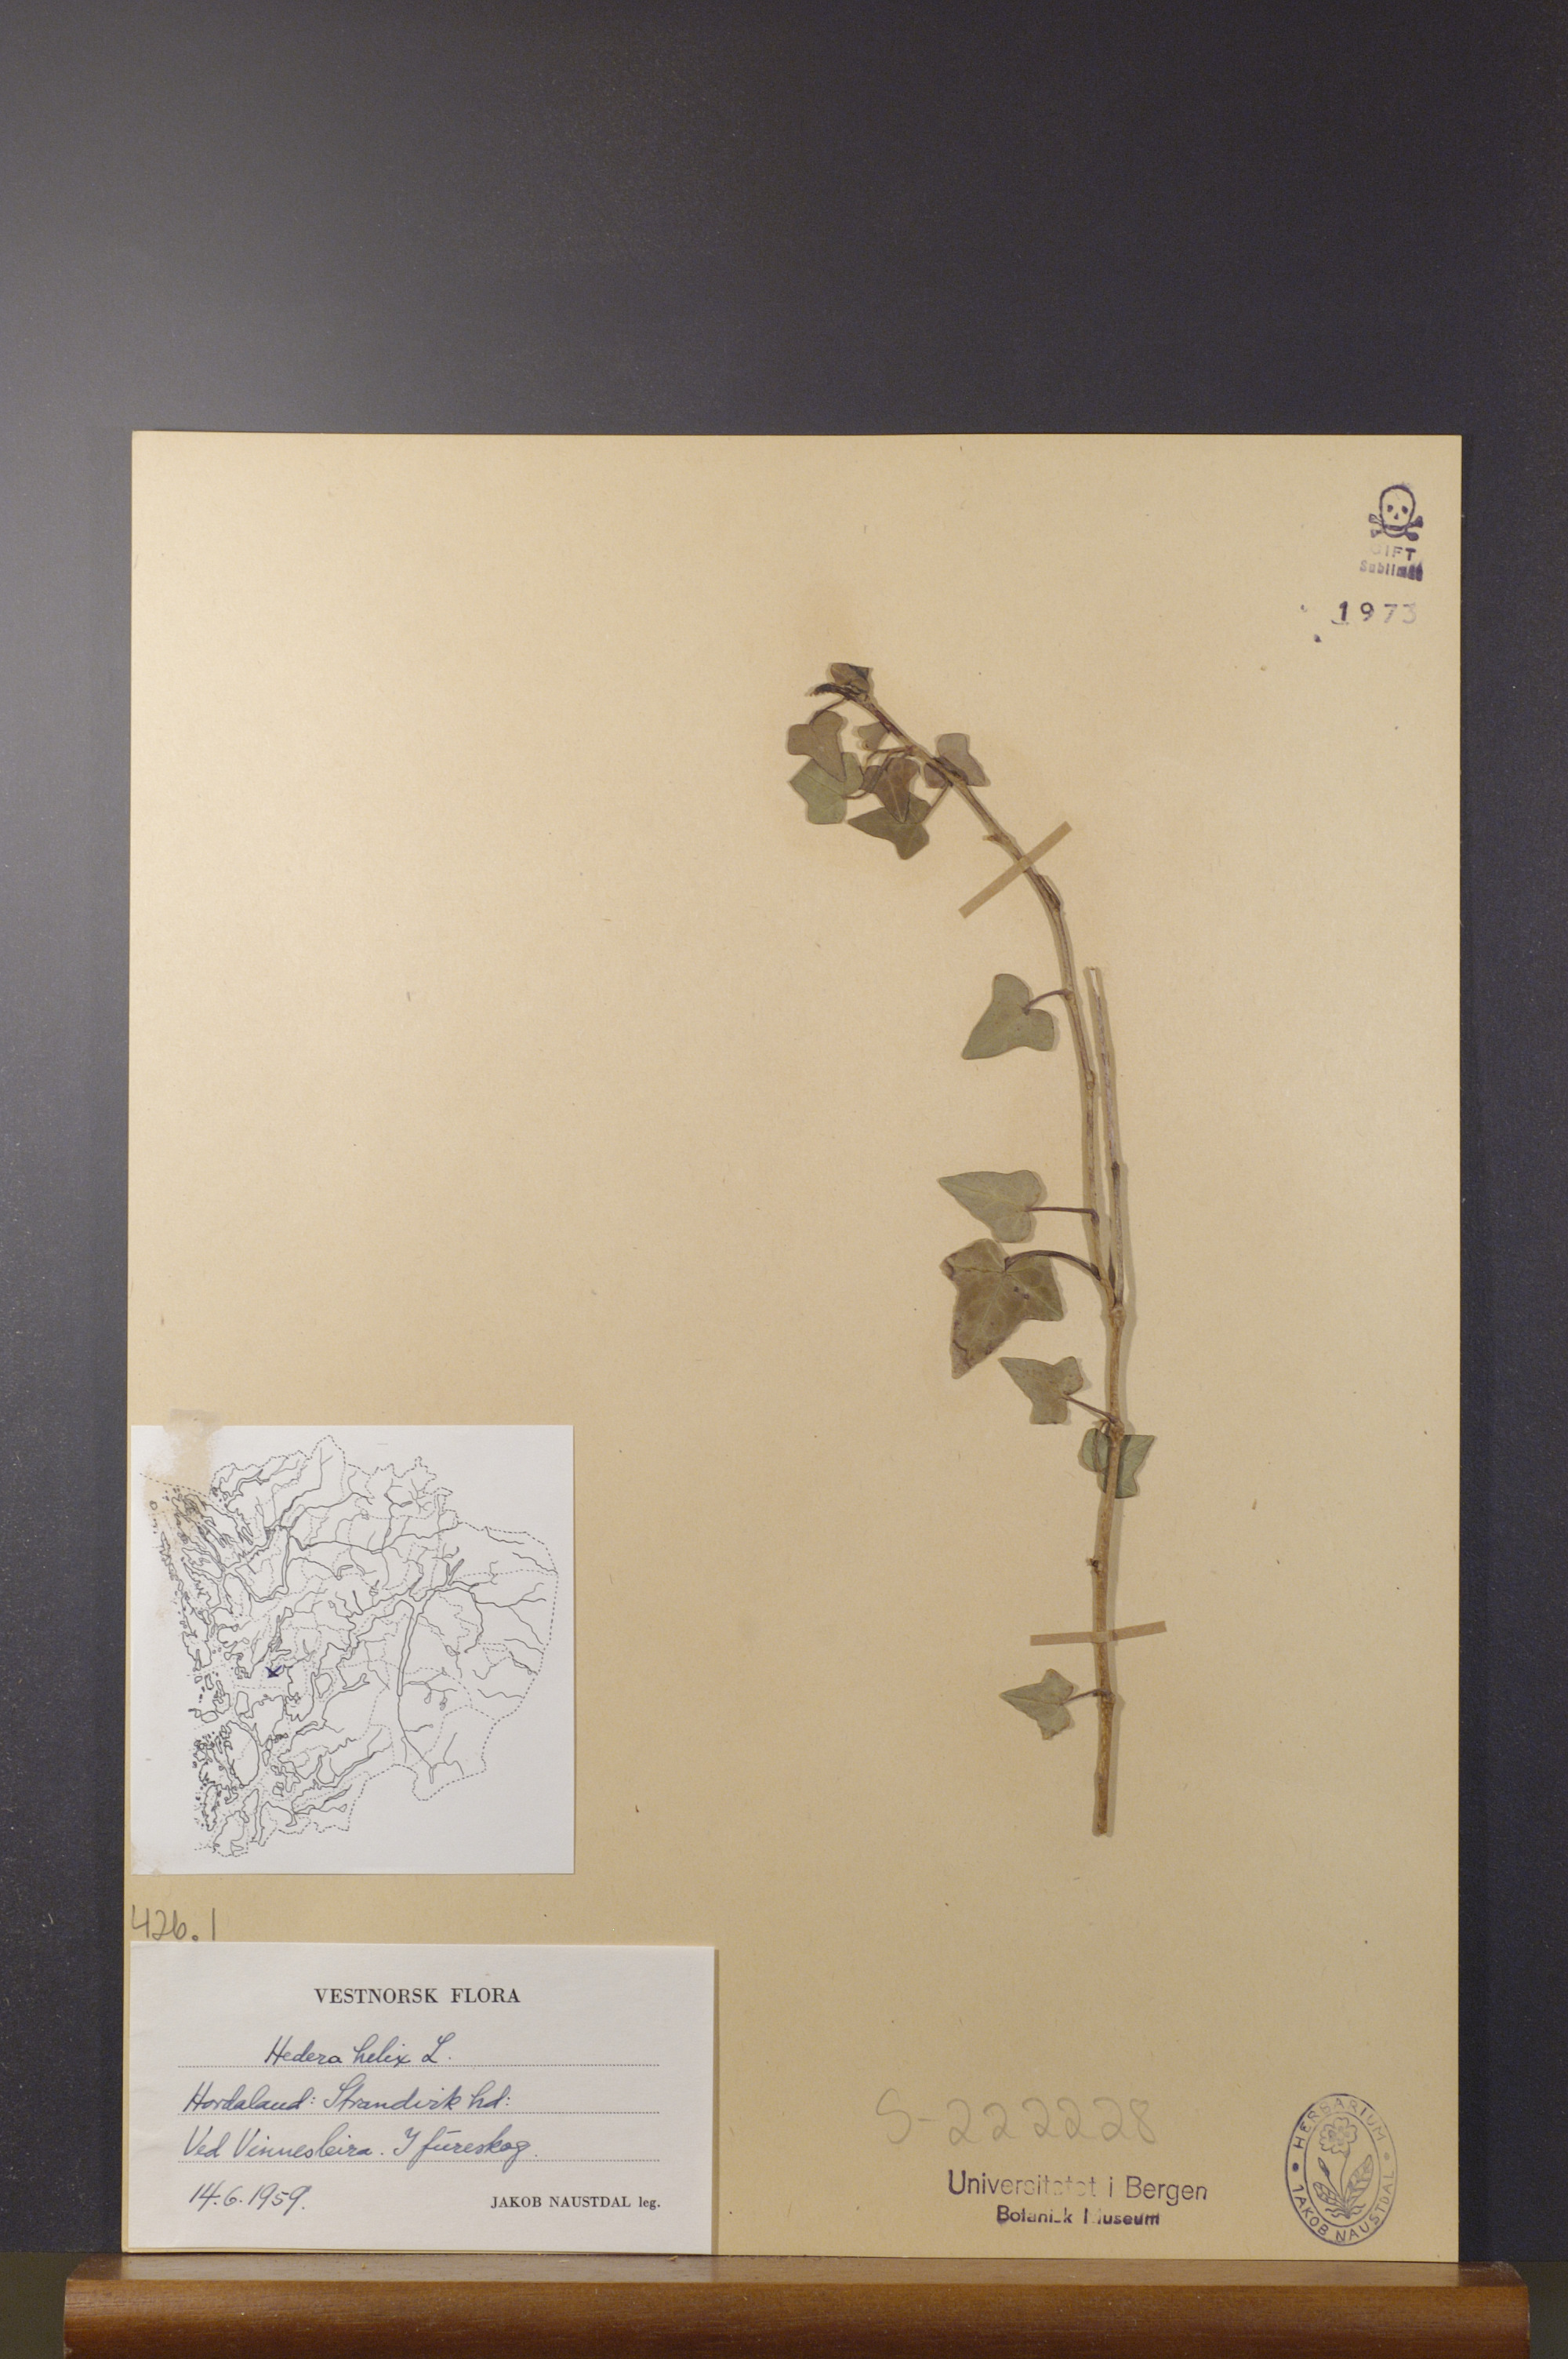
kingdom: Plantae
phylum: Tracheophyta
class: Magnoliopsida
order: Apiales
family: Araliaceae
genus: Hedera
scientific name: Hedera helix
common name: Ivy
